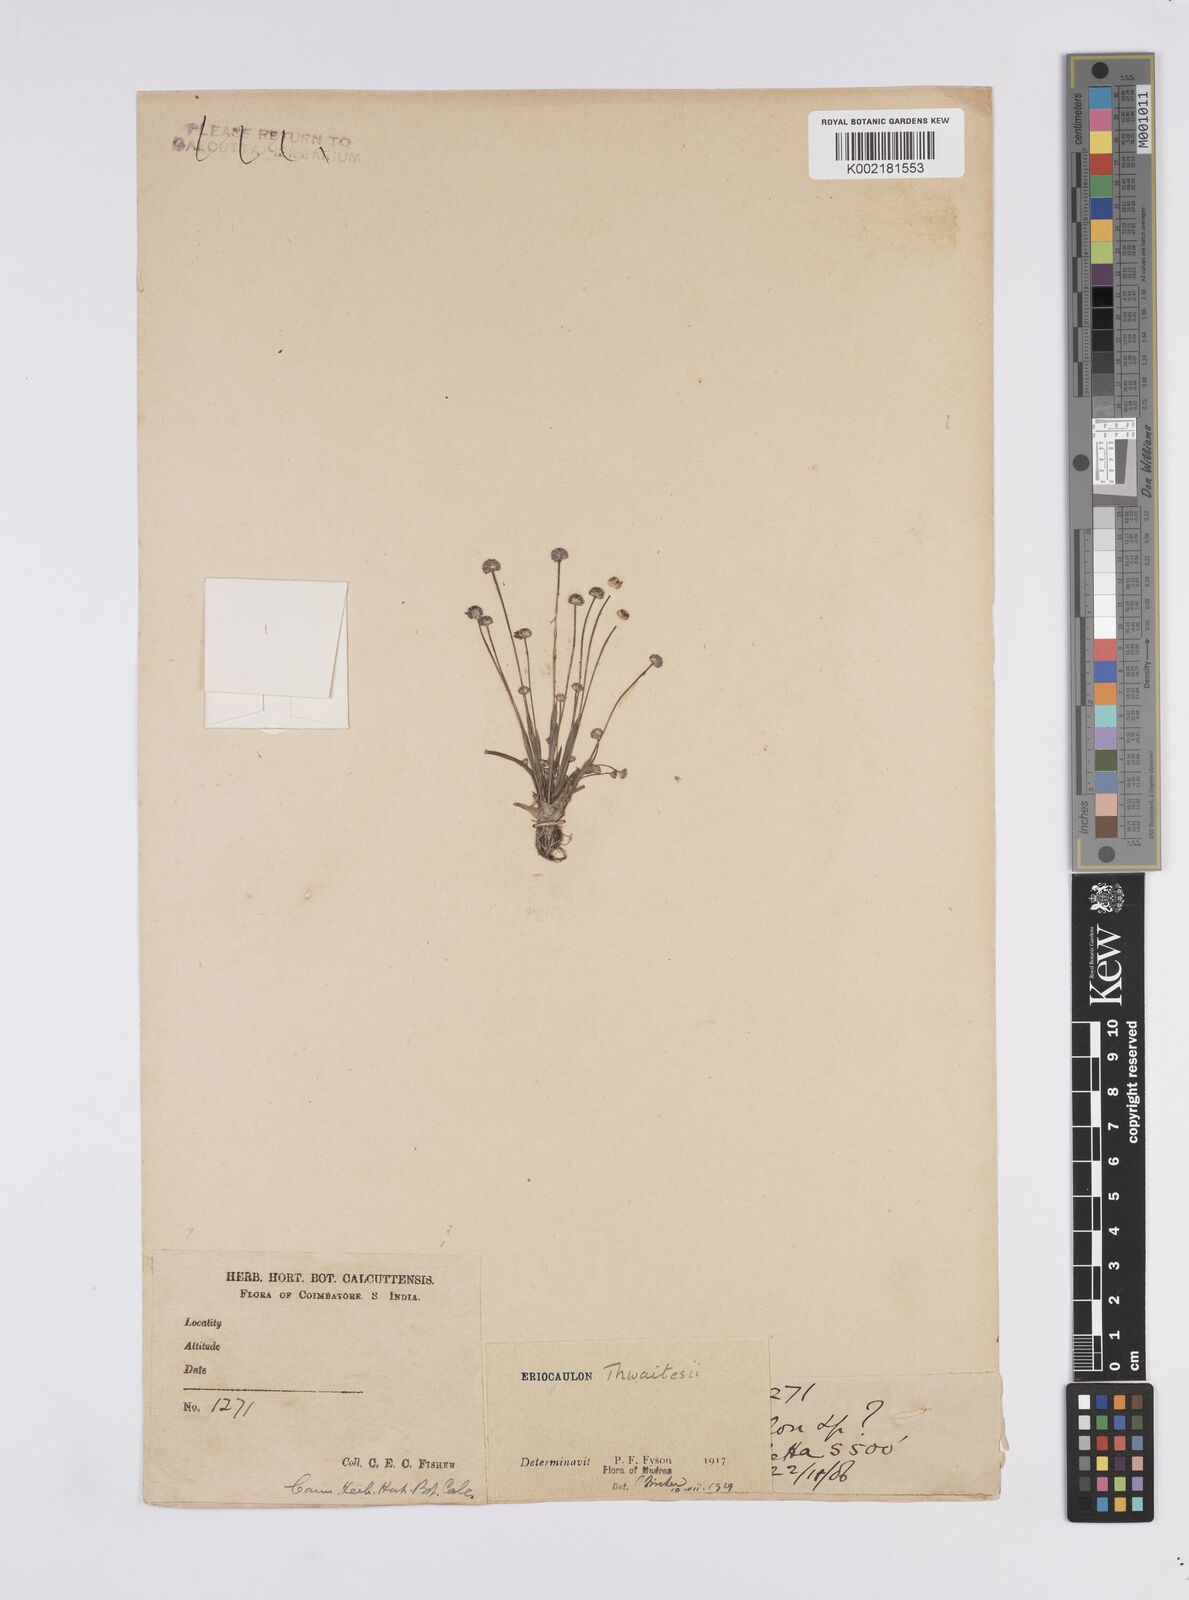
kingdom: Plantae
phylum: Tracheophyta
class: Liliopsida
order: Poales
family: Eriocaulaceae
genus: Eriocaulon
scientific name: Eriocaulon thwaitesii
